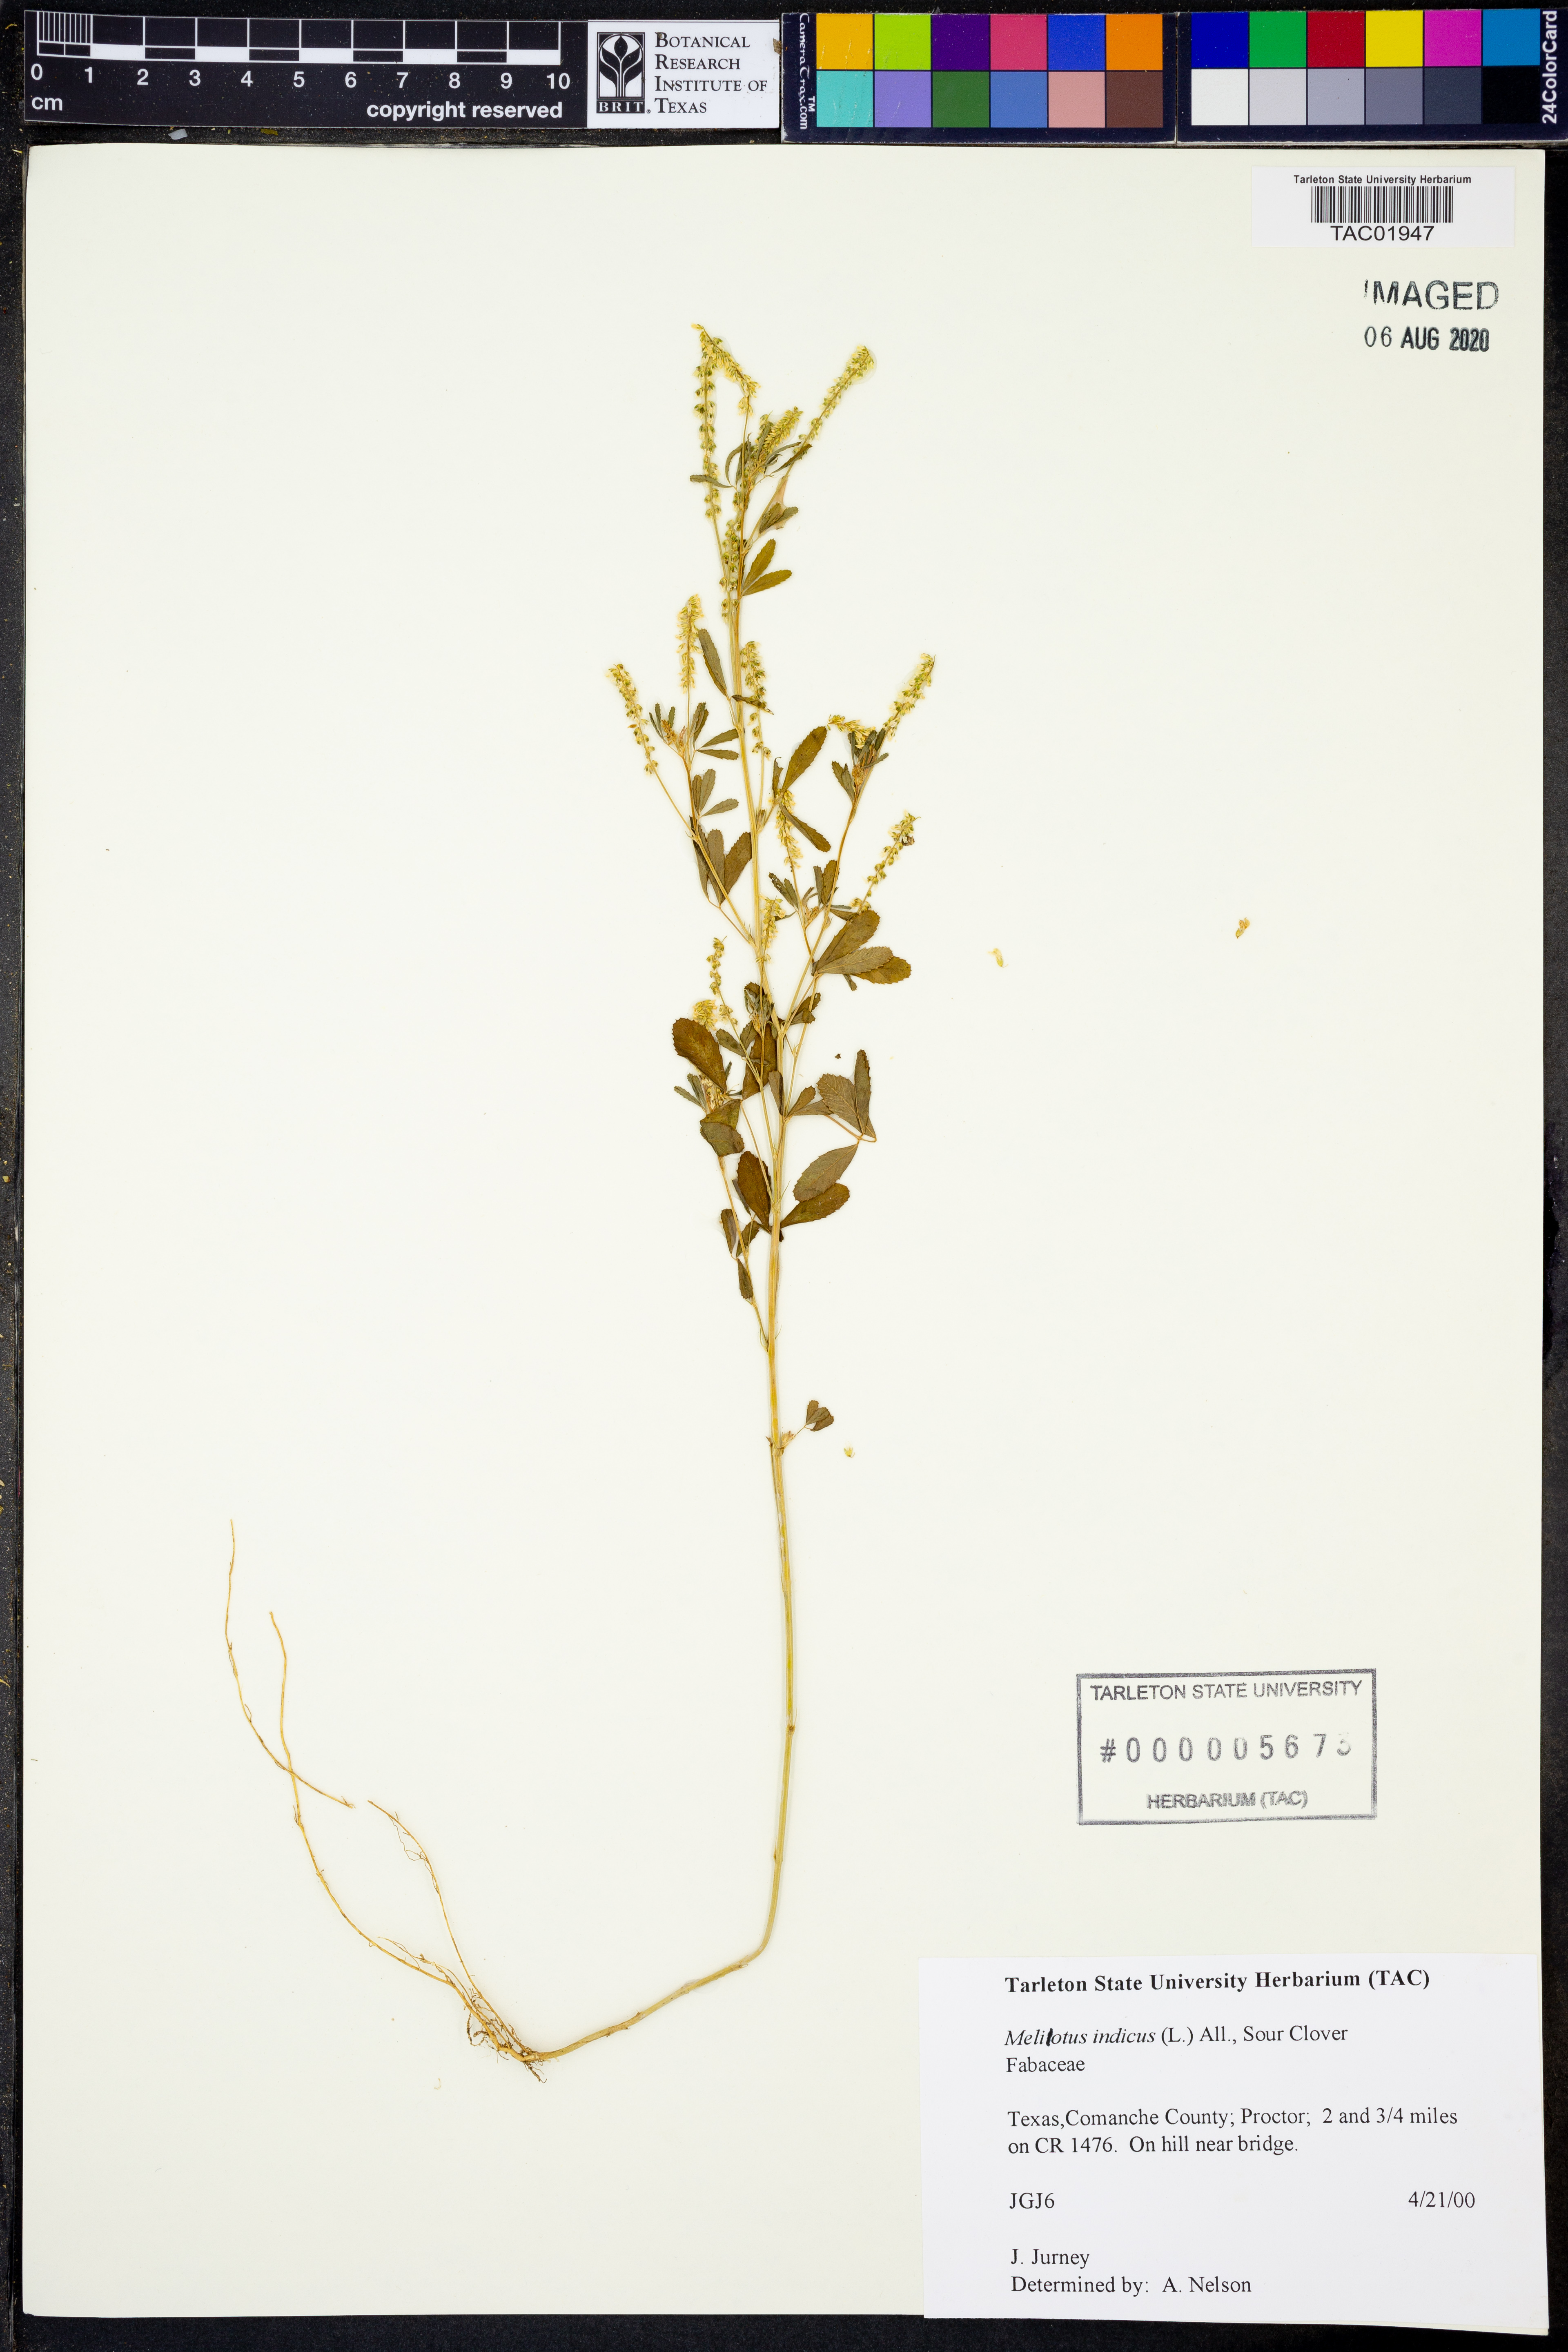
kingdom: Plantae
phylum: Tracheophyta
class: Magnoliopsida
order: Fabales
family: Fabaceae
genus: Melilotus
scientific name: Melilotus indicus
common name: Small melilot
